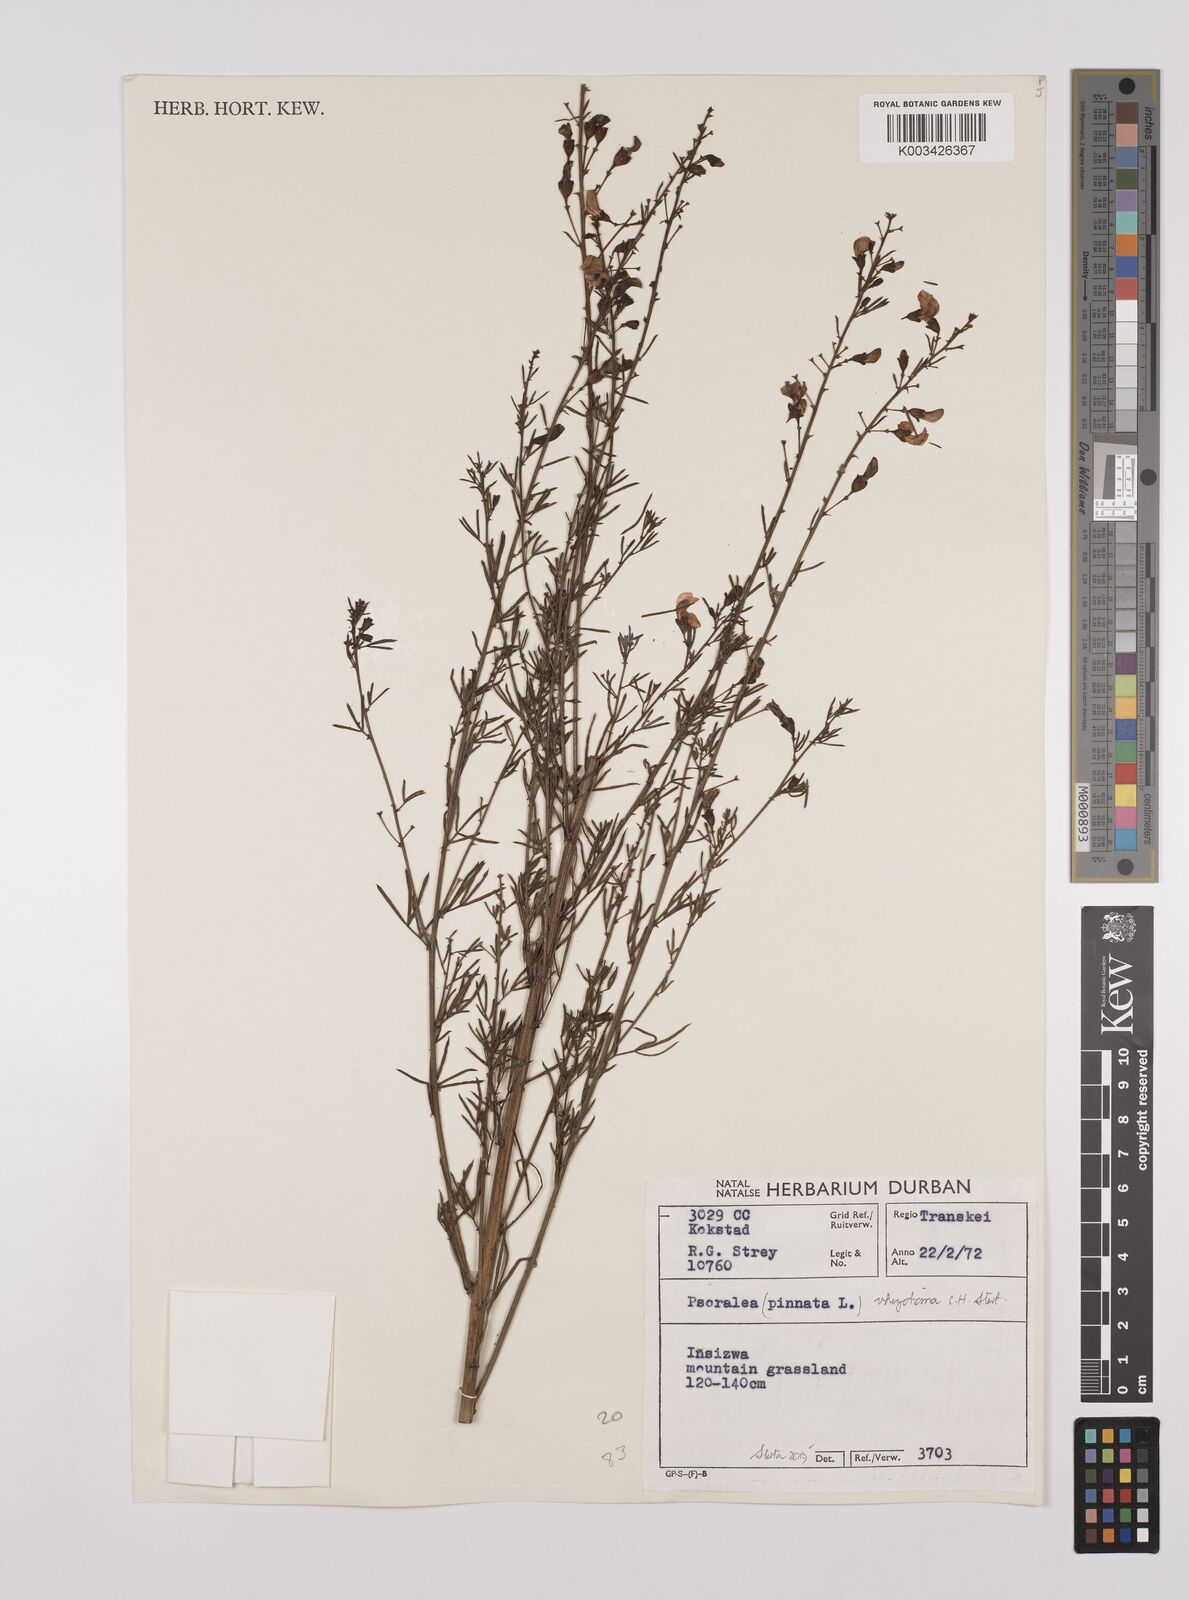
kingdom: Plantae
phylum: Tracheophyta
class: Magnoliopsida
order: Fabales
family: Fabaceae
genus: Psoralea
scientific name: Psoralea rhizotoma
